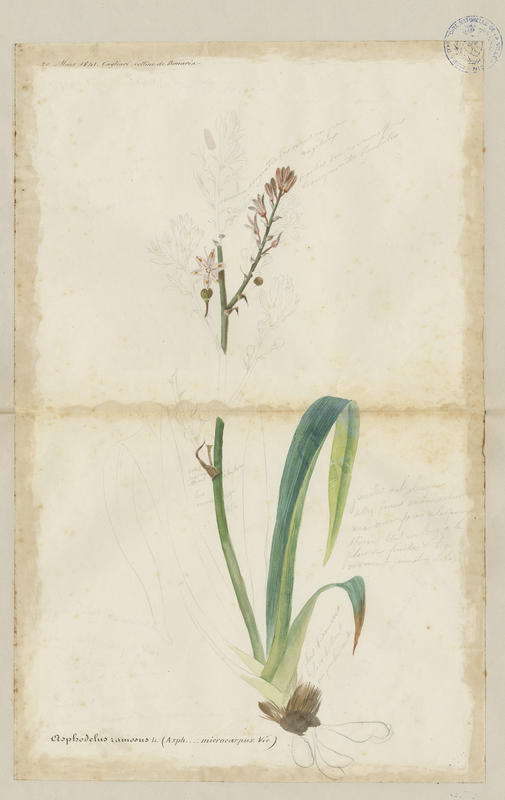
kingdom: Plantae
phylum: Tracheophyta
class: Liliopsida
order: Asparagales
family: Asphodelaceae
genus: Asphodelus
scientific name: Asphodelus ramosus
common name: Silverrod
